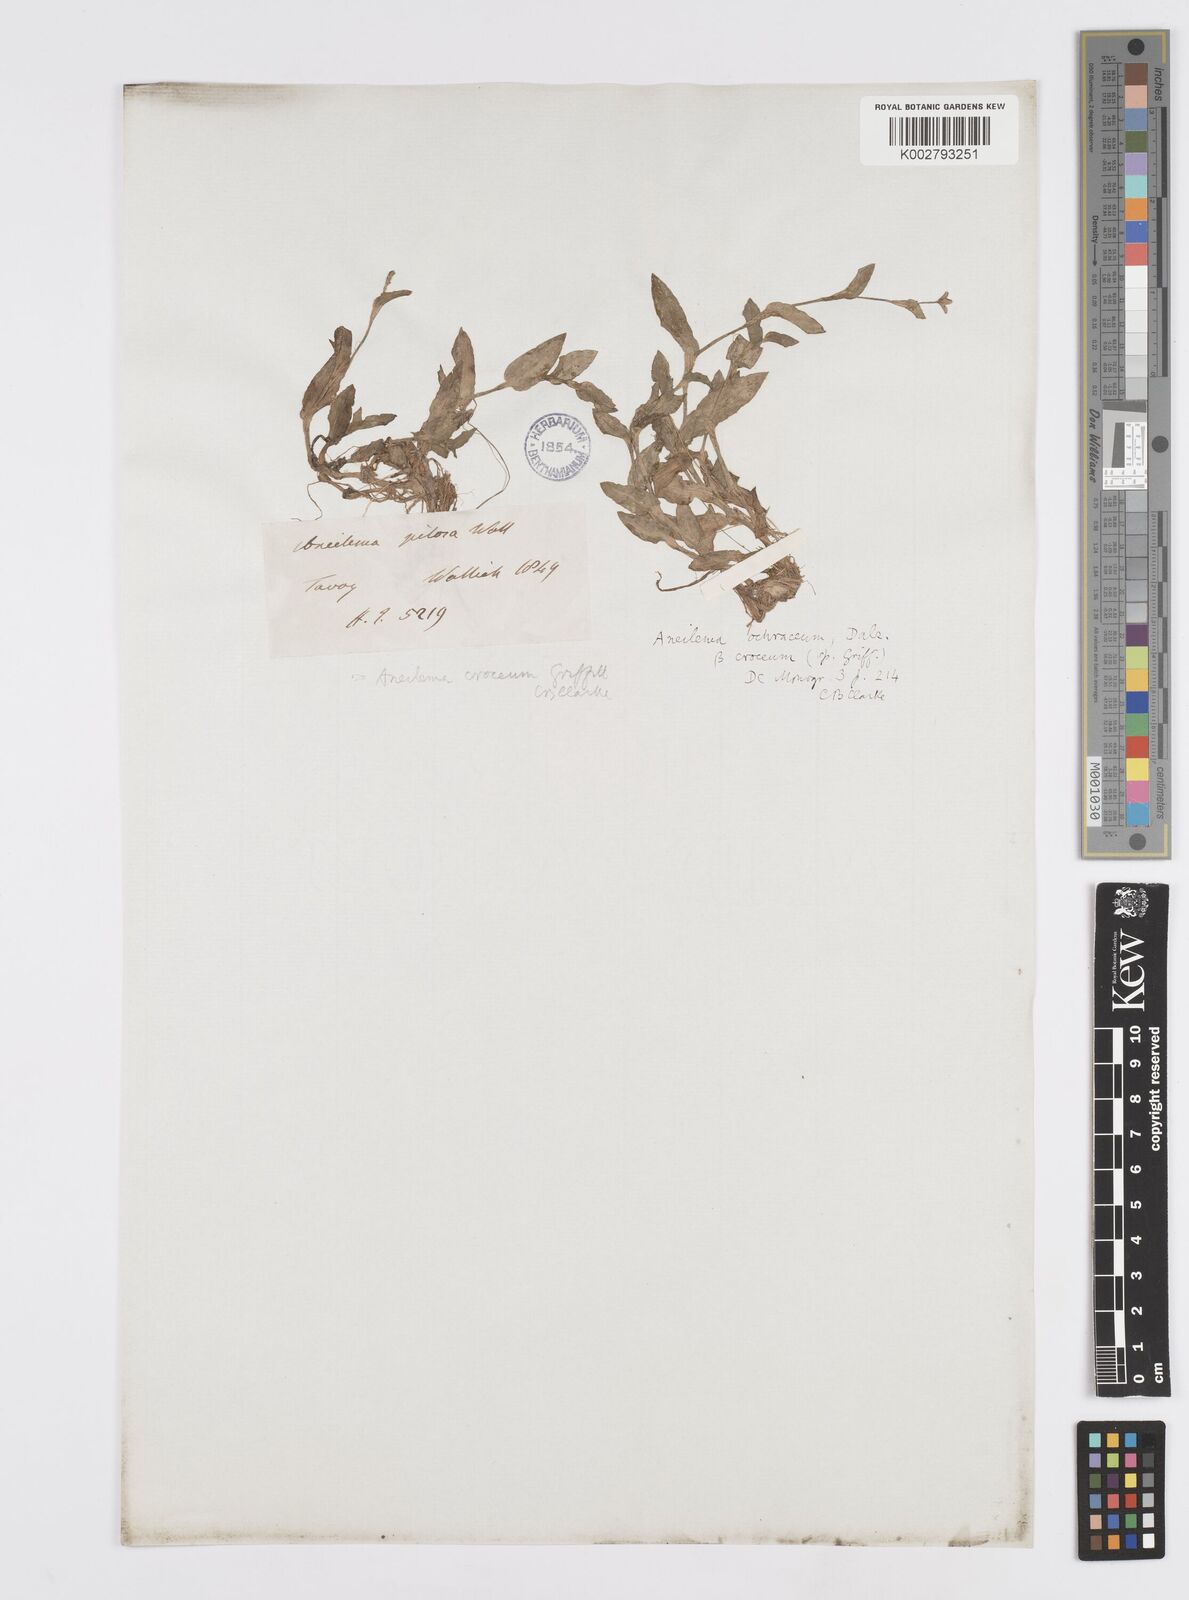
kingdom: Plantae
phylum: Tracheophyta
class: Liliopsida
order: Commelinales
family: Commelinaceae
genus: Murdannia
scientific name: Murdannia crocea
